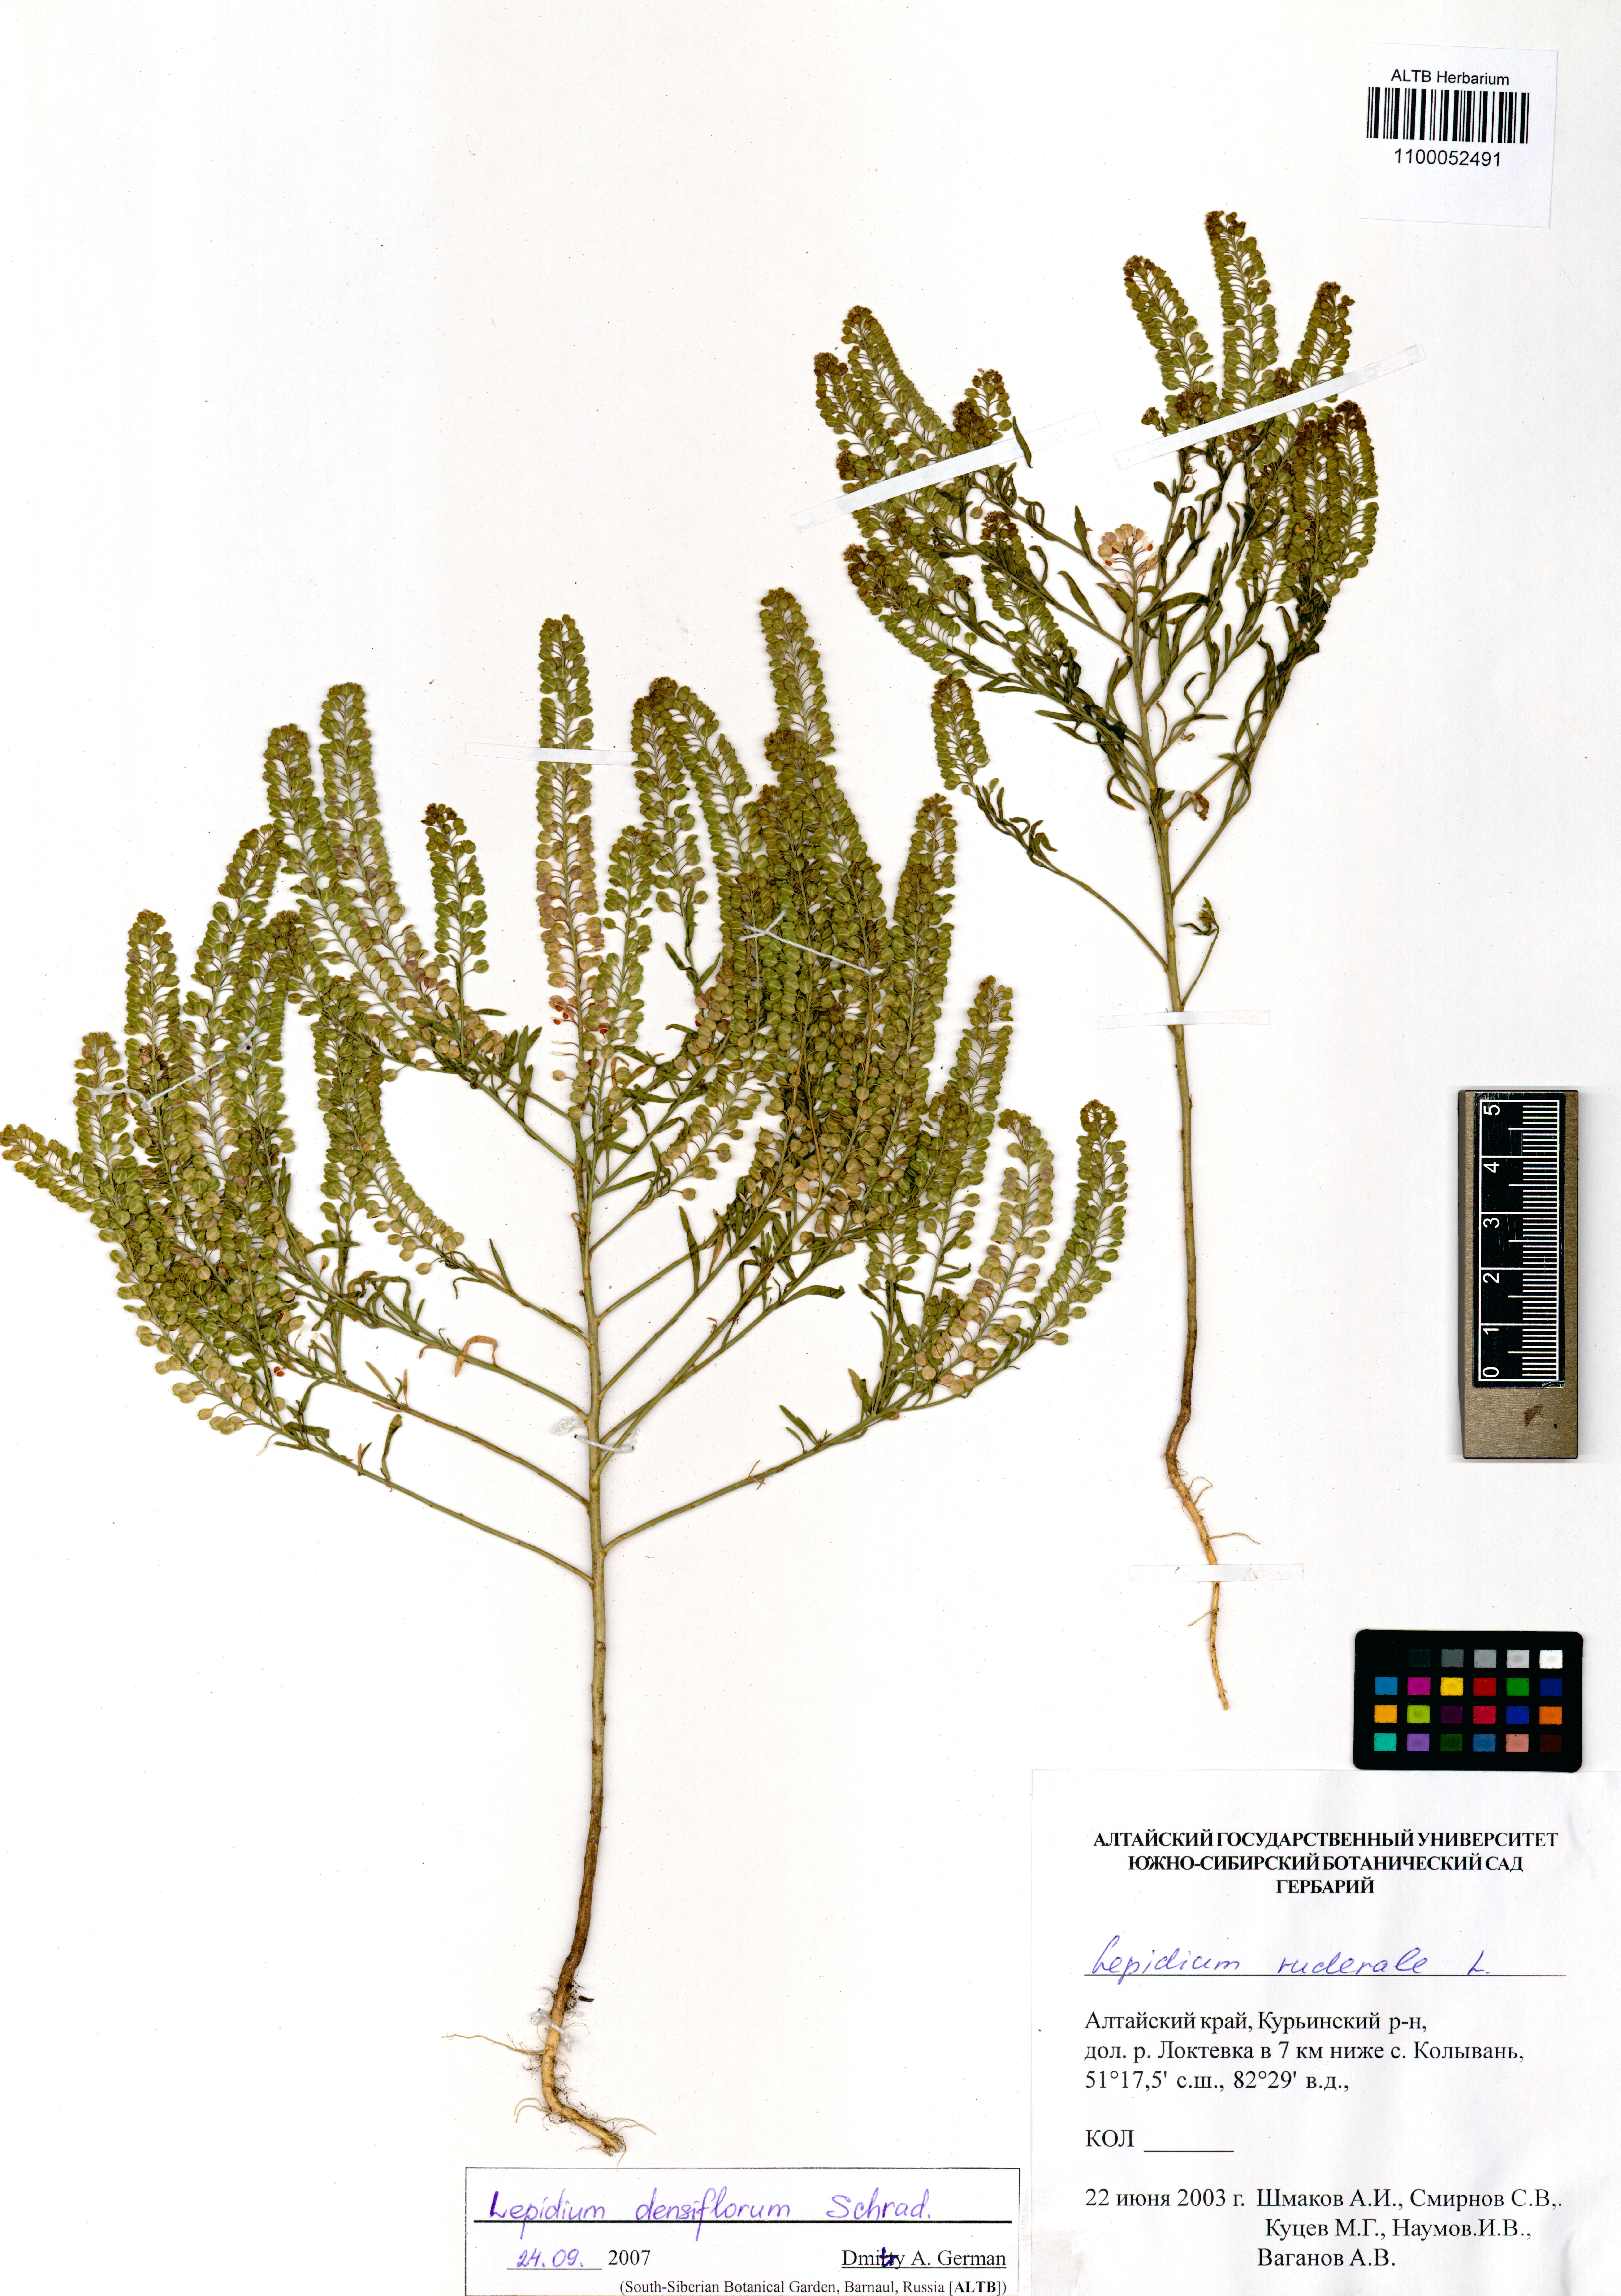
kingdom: Plantae
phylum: Tracheophyta
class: Magnoliopsida
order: Brassicales
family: Brassicaceae
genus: Lepidium
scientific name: Lepidium densiflorum
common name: Miner's pepperwort
